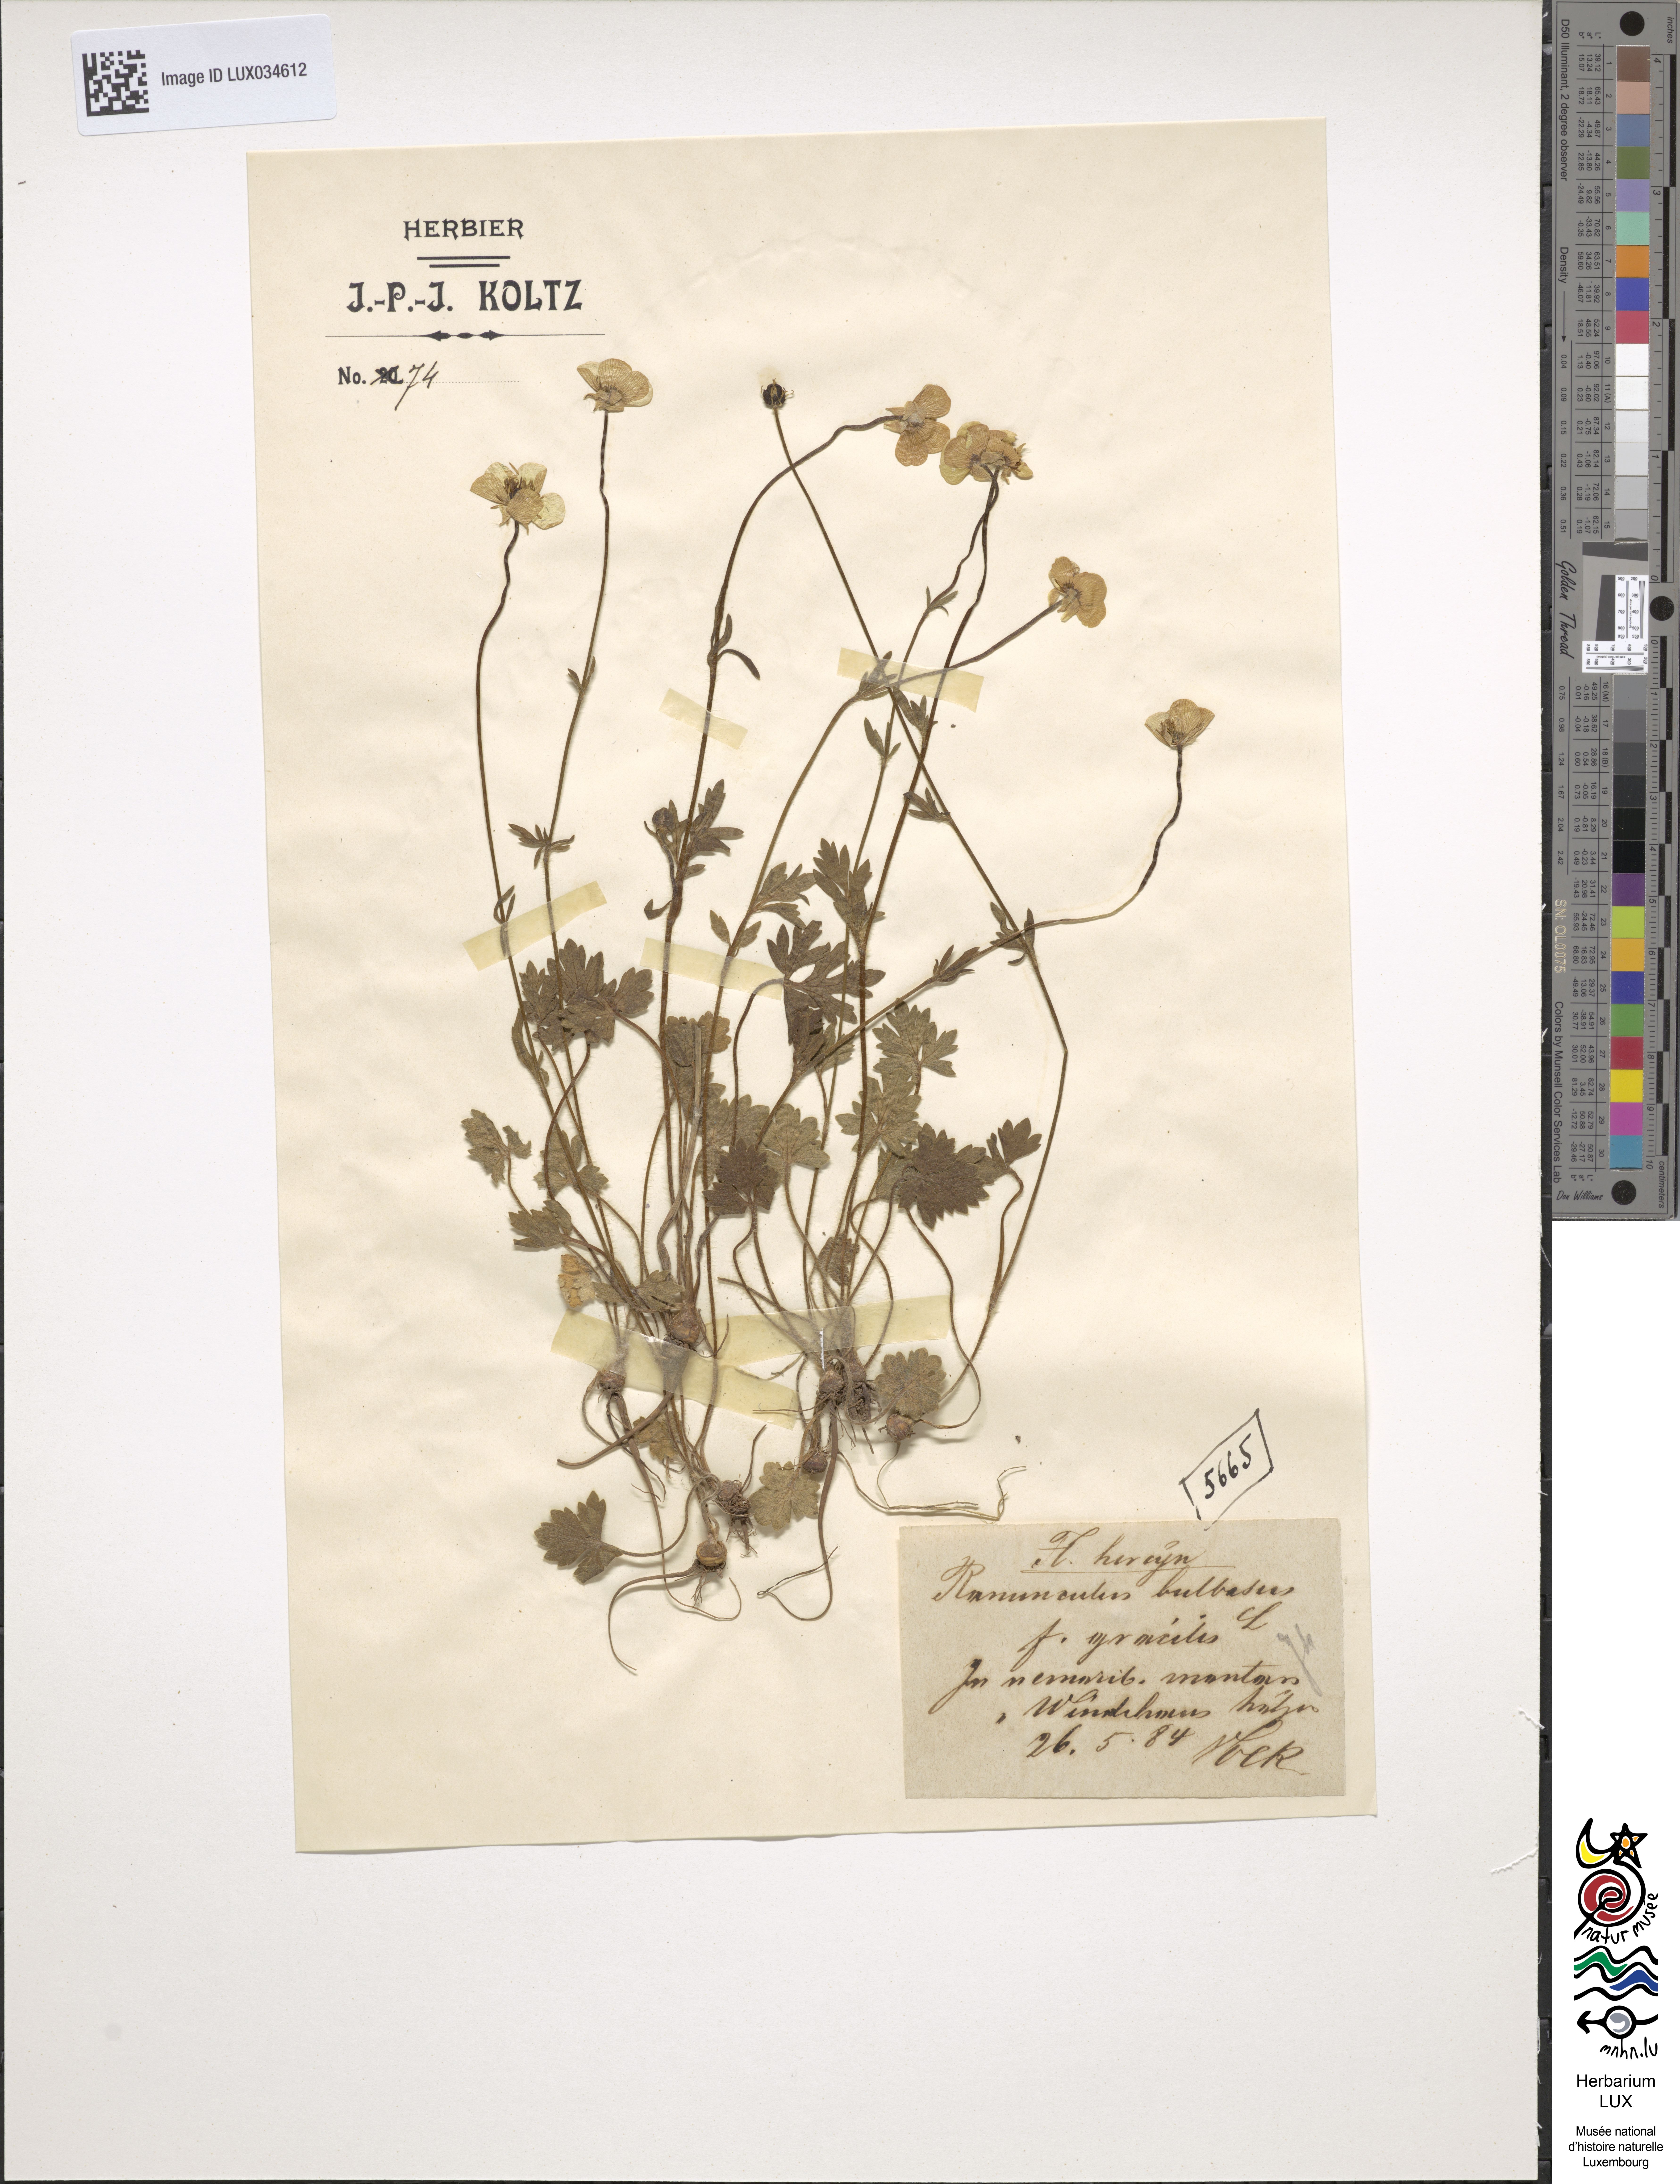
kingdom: Plantae
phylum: Tracheophyta
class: Magnoliopsida
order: Ranunculales
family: Ranunculaceae
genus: Ranunculus
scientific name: Ranunculus bulbosus
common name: Bulbous buttercup
